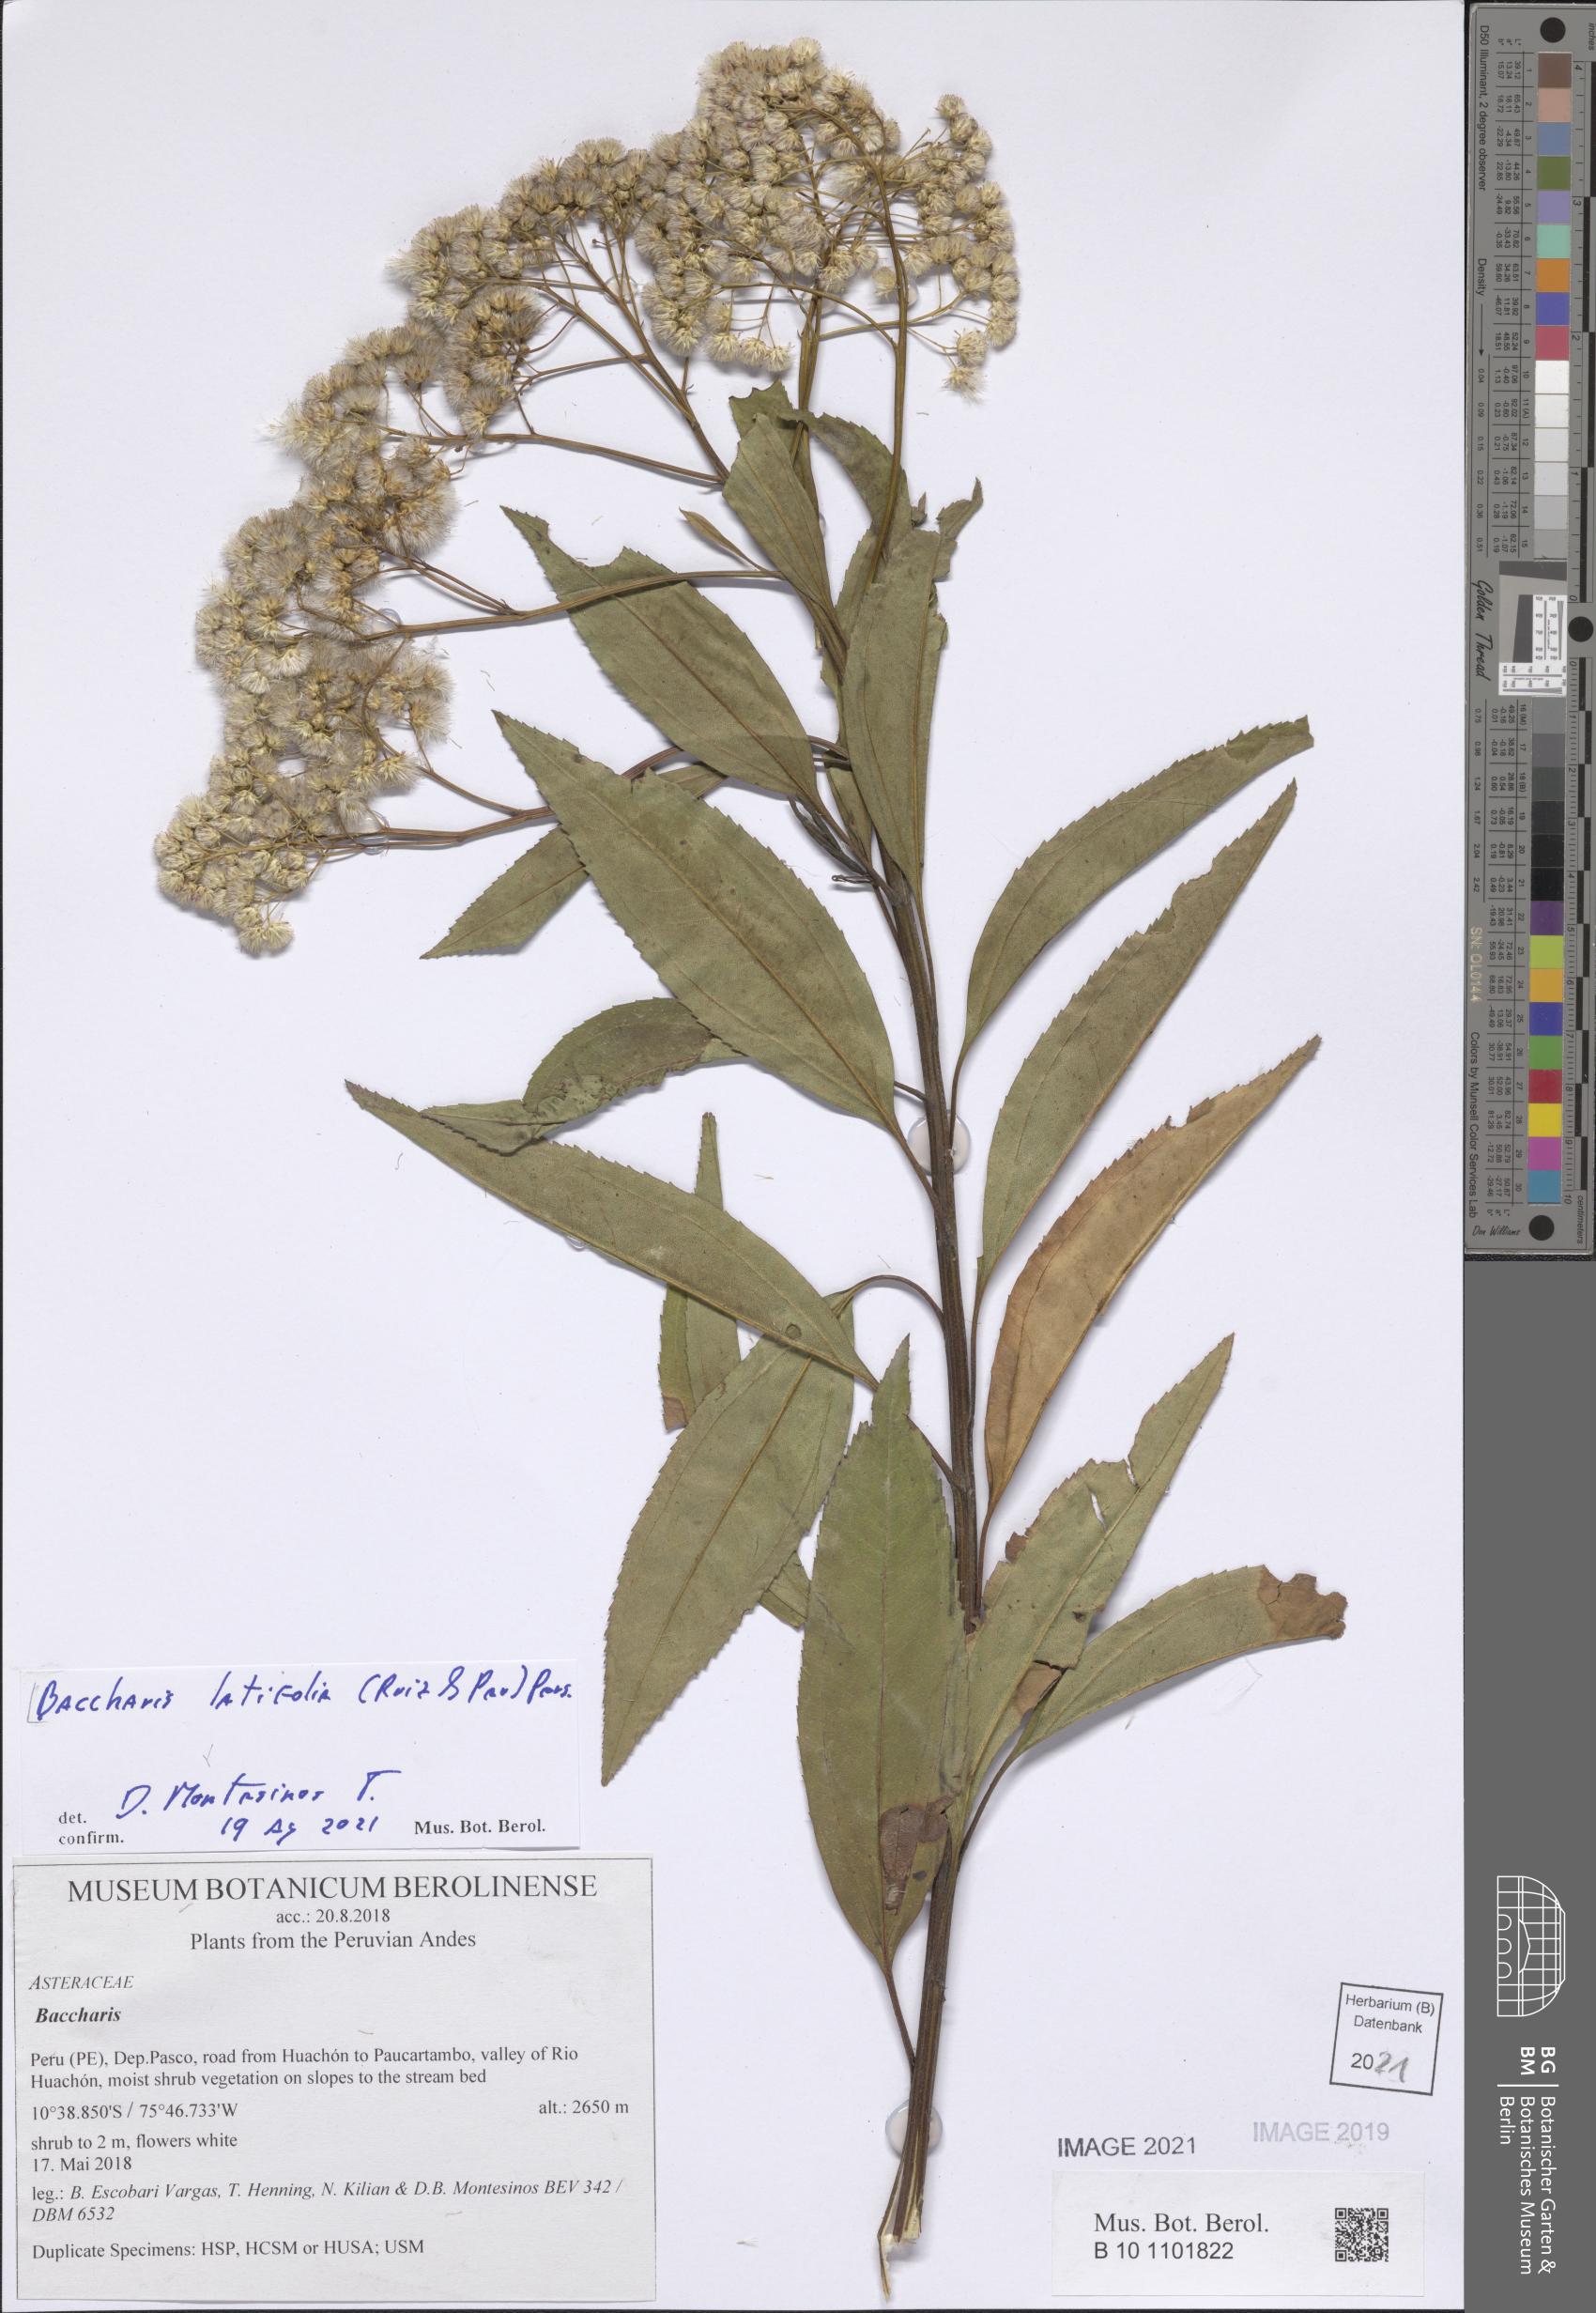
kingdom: Plantae
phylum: Tracheophyta
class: Magnoliopsida
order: Asterales
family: Asteraceae
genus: Baccharis
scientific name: Baccharis latifolia
